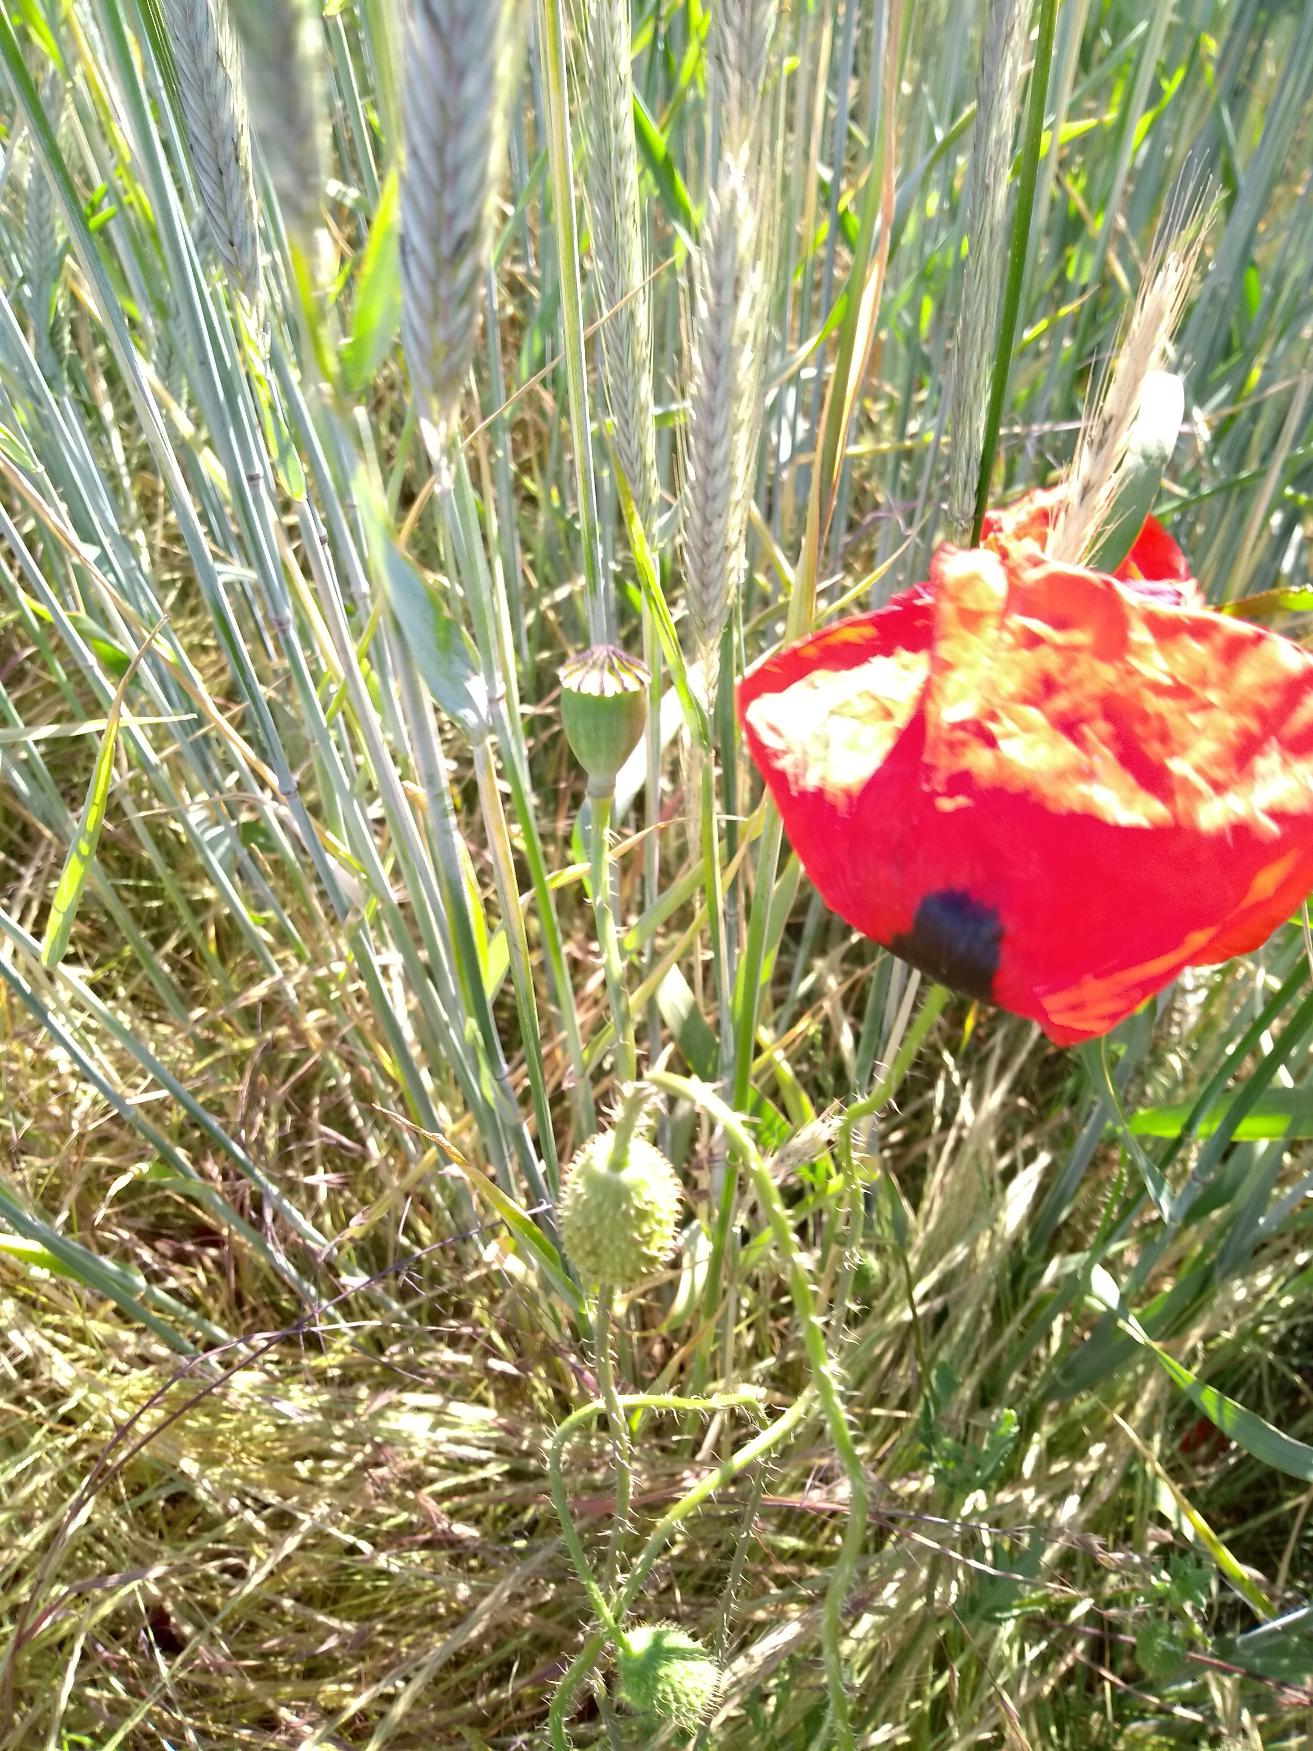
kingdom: Plantae
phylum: Tracheophyta
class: Magnoliopsida
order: Ranunculales
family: Papaveraceae
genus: Papaver
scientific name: Papaver rhoeas
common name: Korn-valmue
